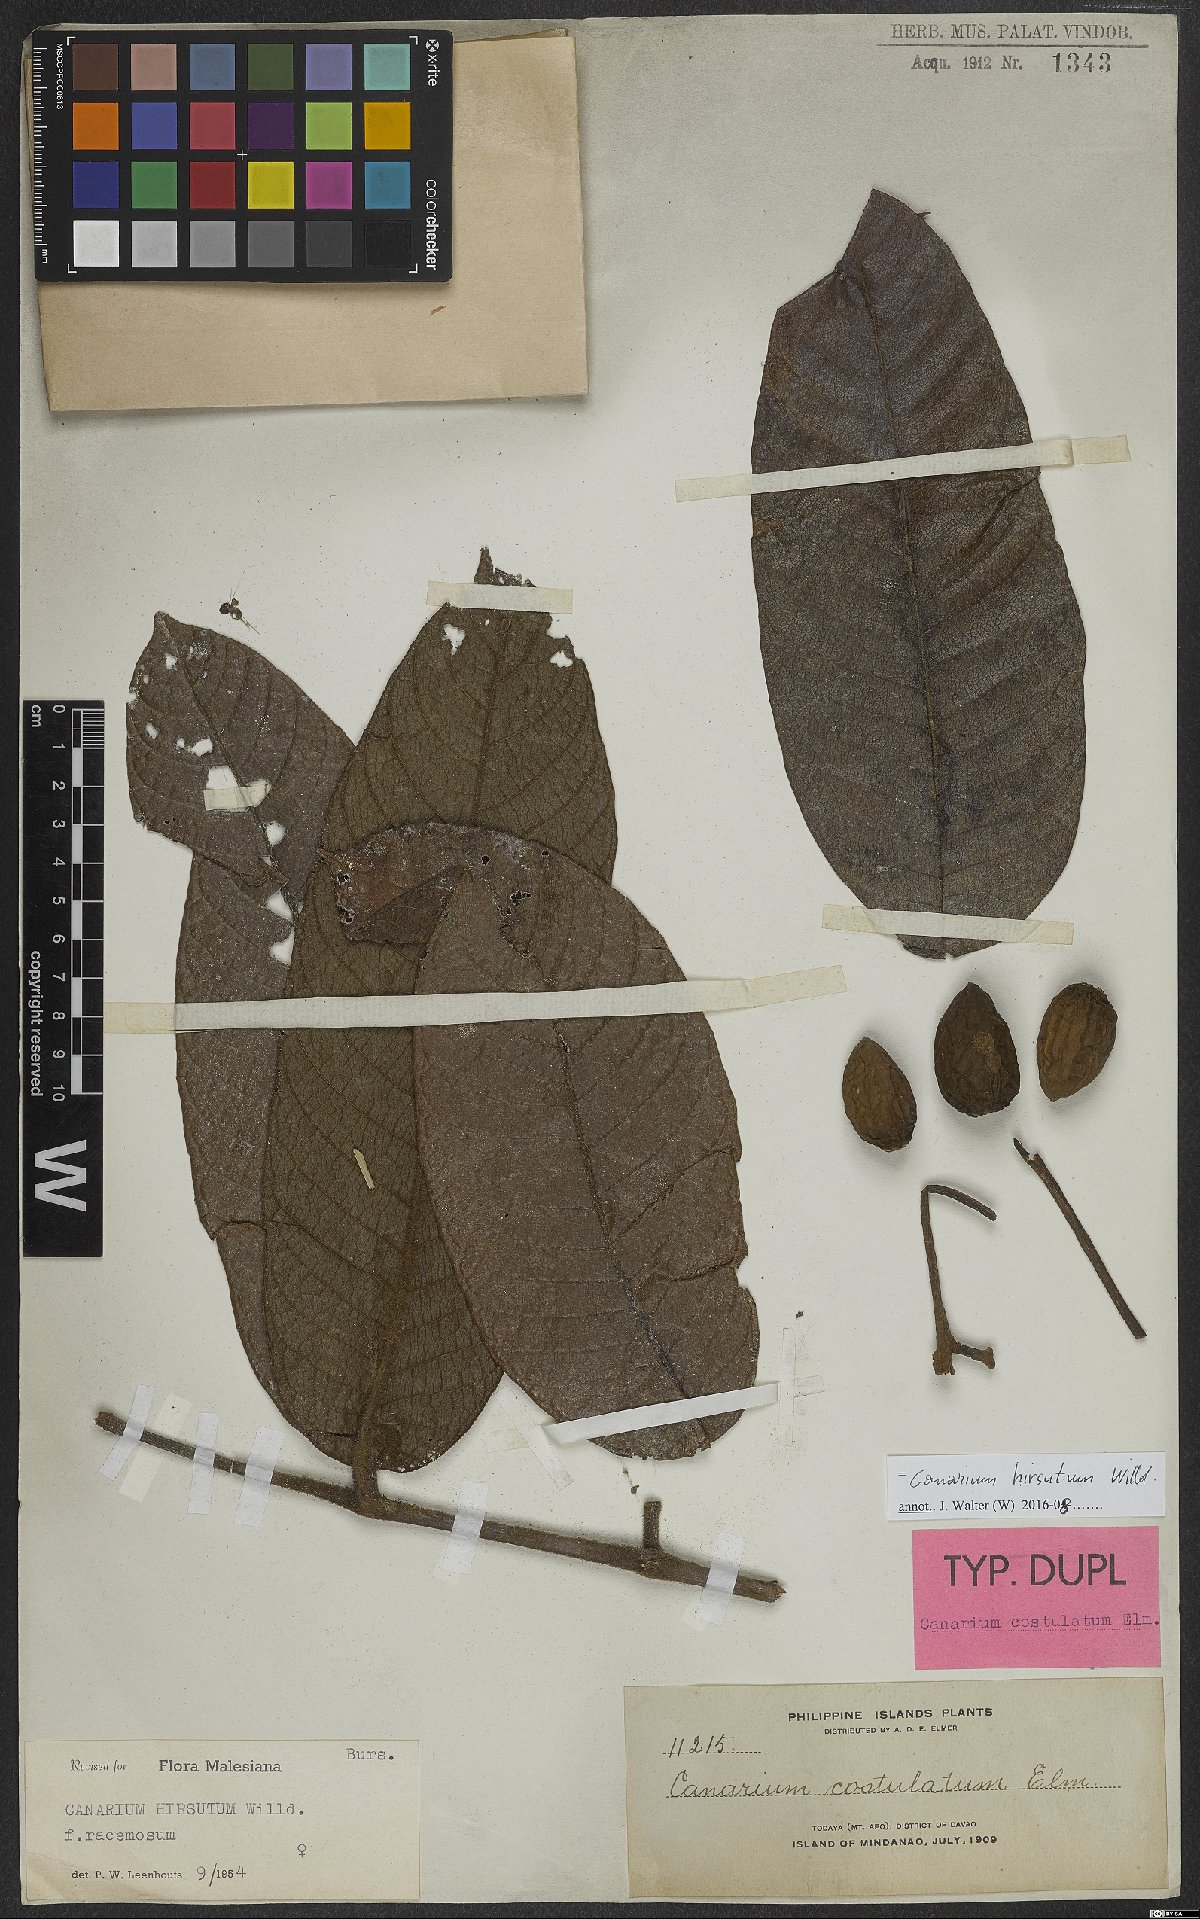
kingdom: Plantae
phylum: Tracheophyta
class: Magnoliopsida
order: Sapindales
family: Burseraceae
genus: Canarium
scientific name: Canarium hirsutum
